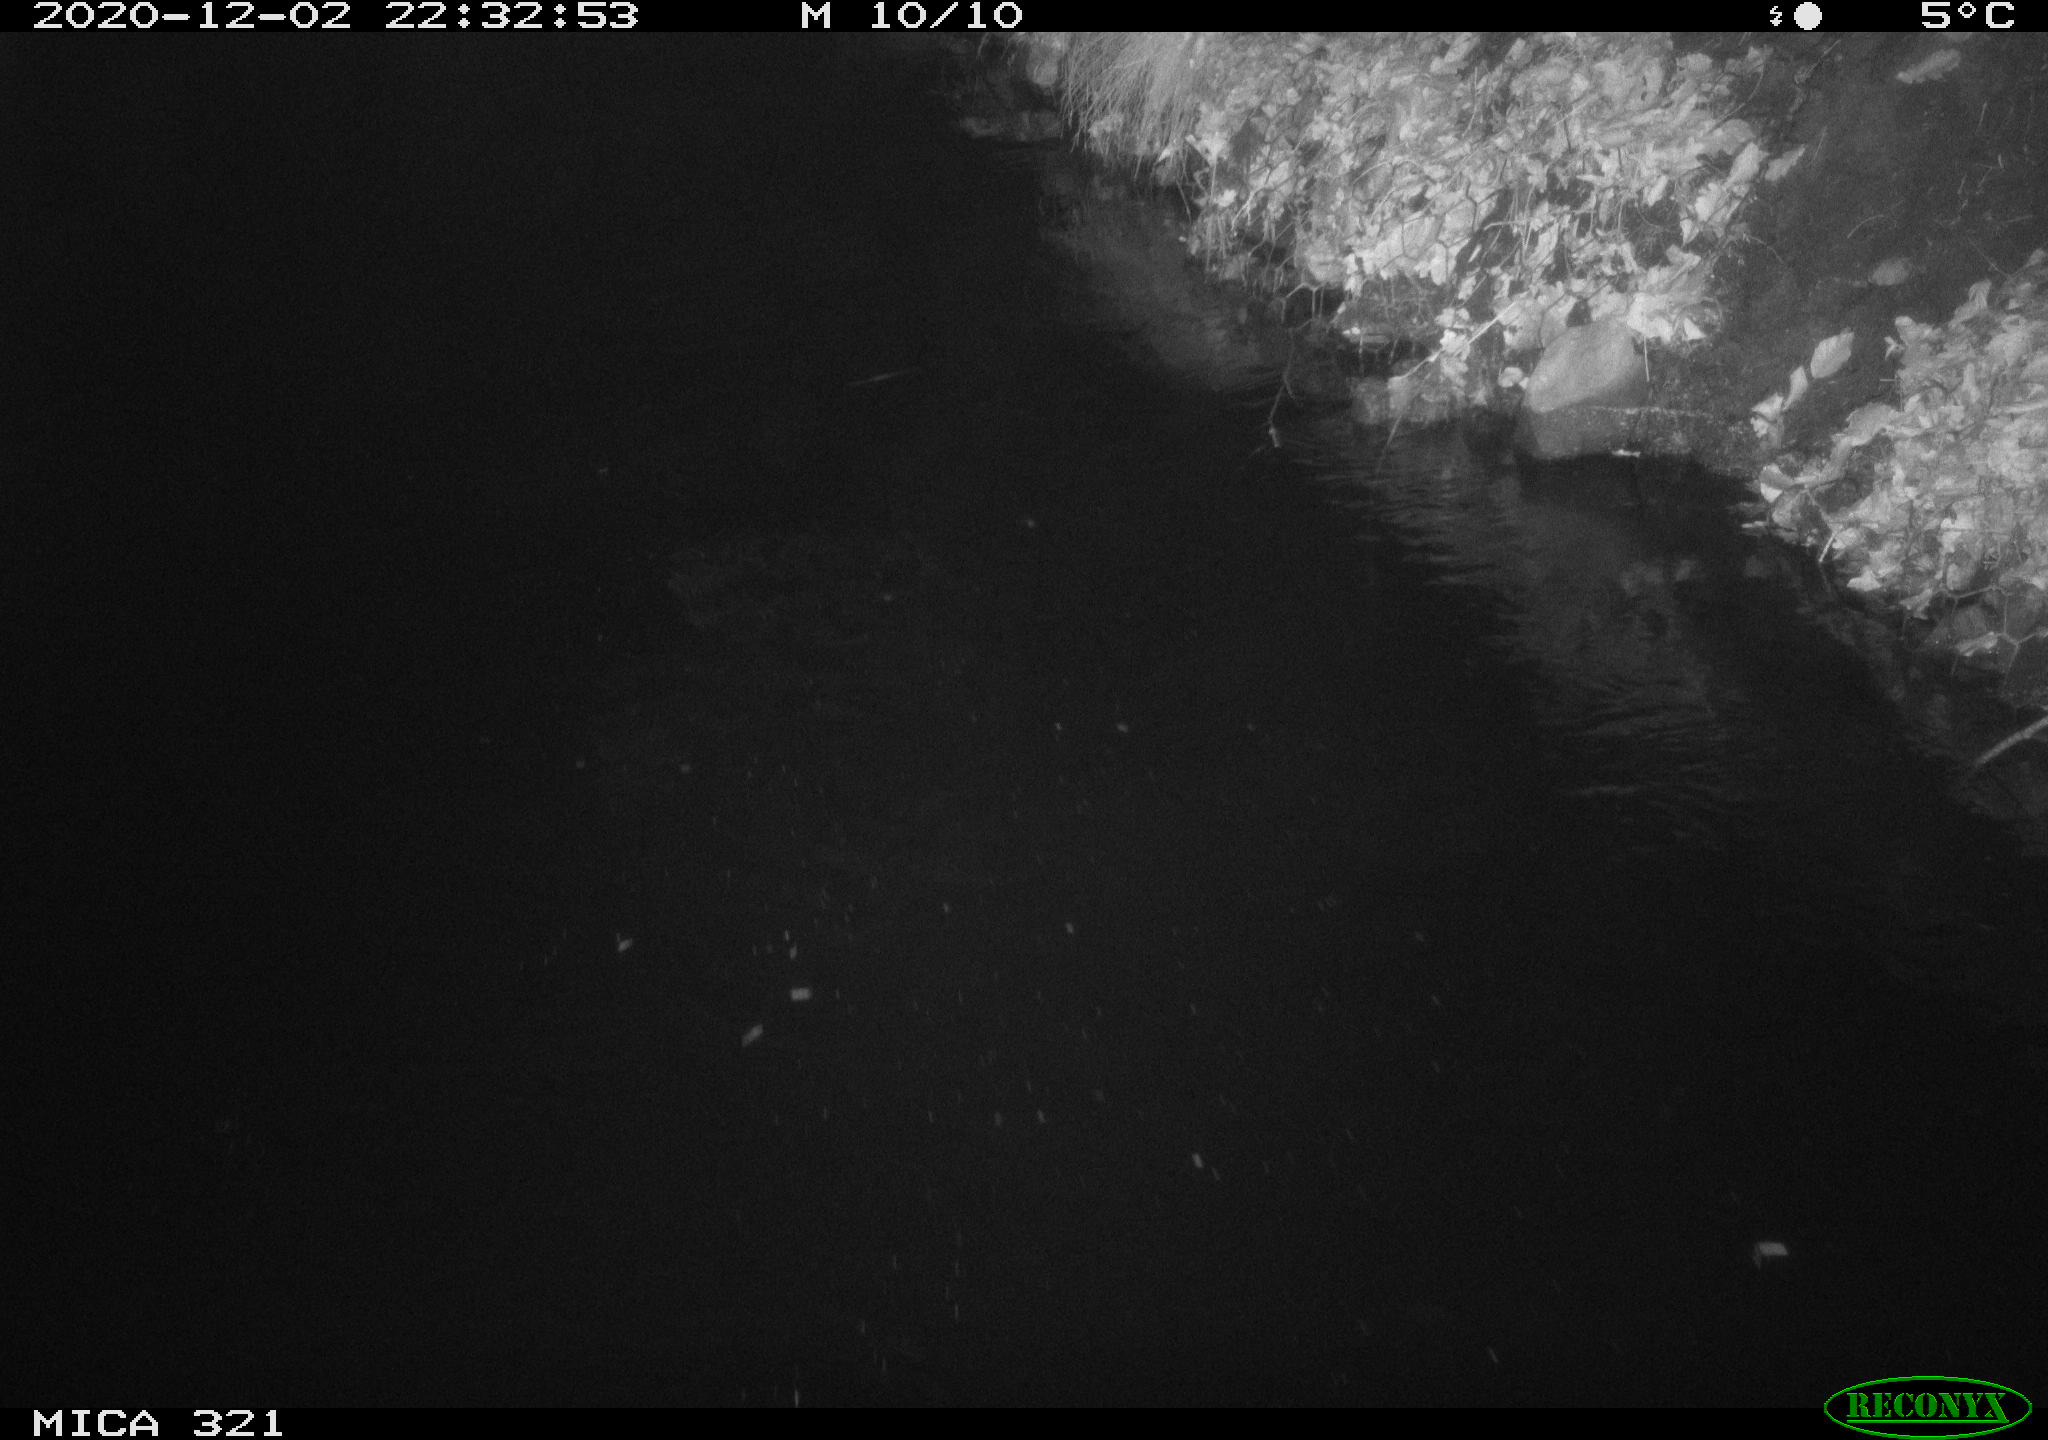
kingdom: Animalia
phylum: Chordata
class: Aves
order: Anseriformes
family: Anatidae
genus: Anas
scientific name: Anas platyrhynchos
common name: Mallard
